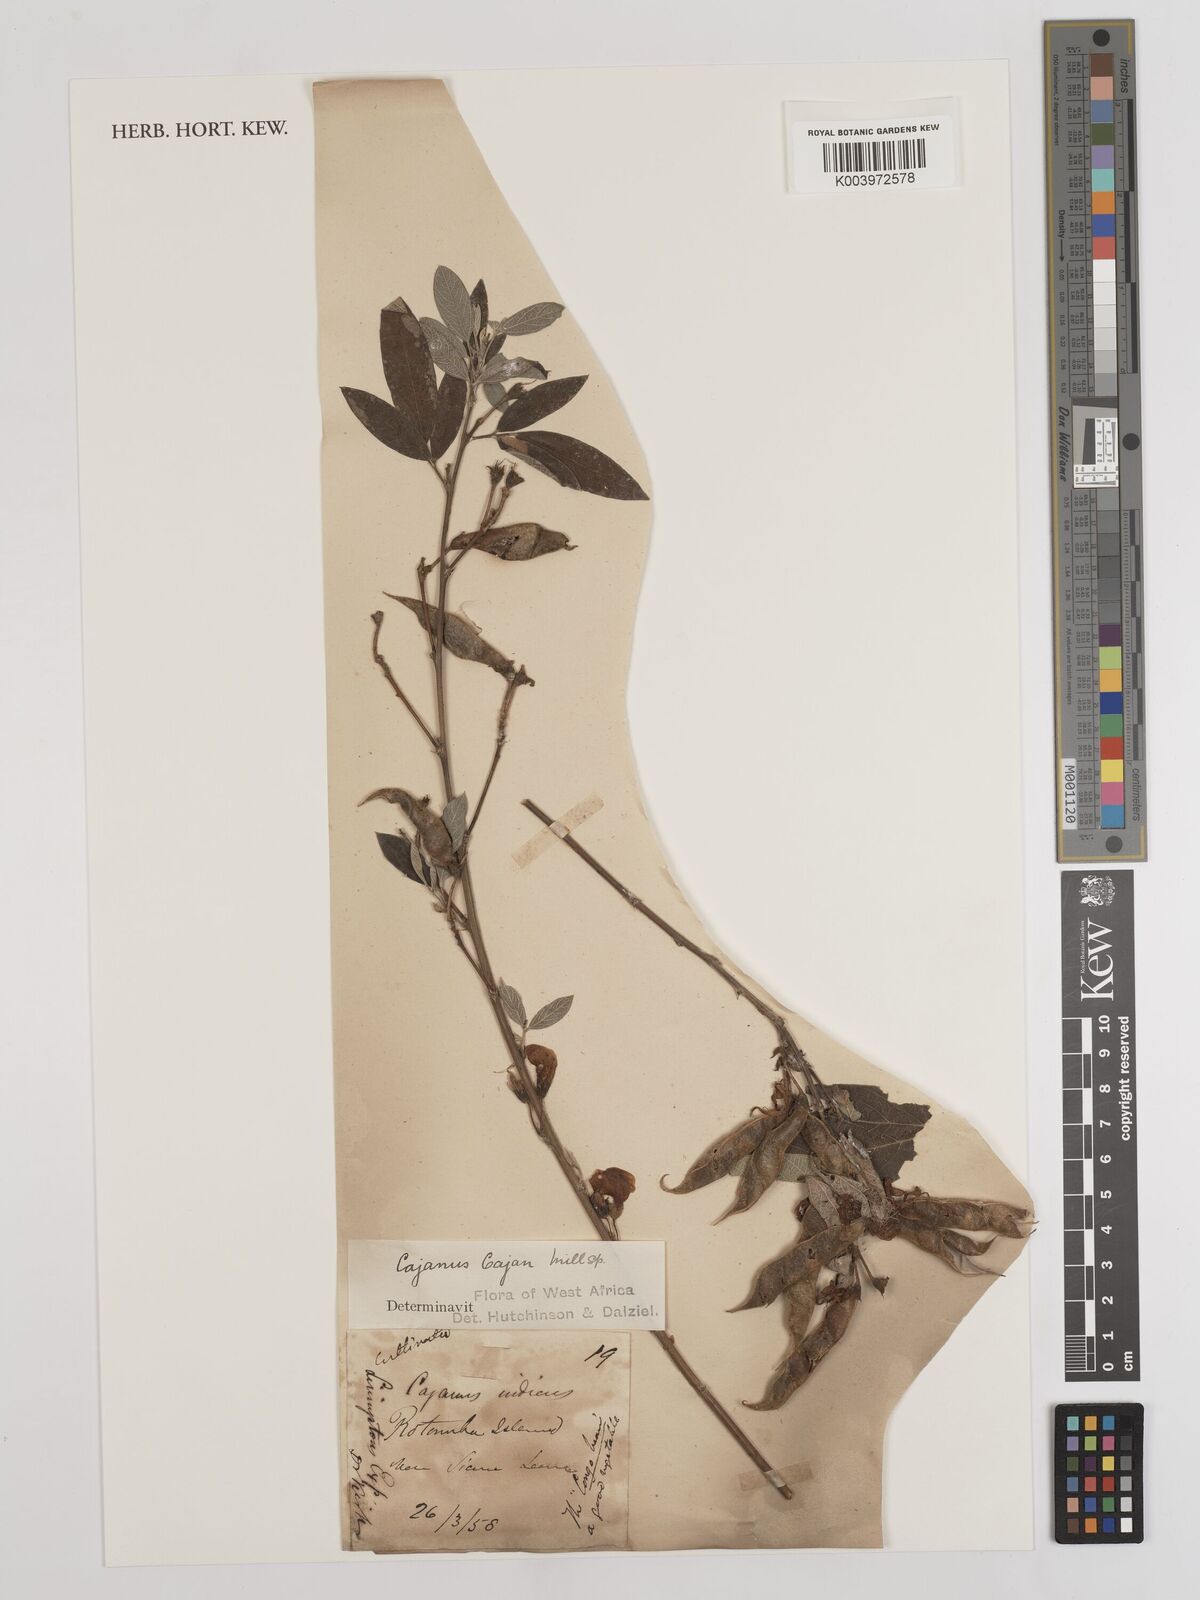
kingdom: Plantae
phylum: Tracheophyta
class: Magnoliopsida
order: Fabales
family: Fabaceae
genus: Cajanus
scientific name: Cajanus cajan
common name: Pigeonpea
